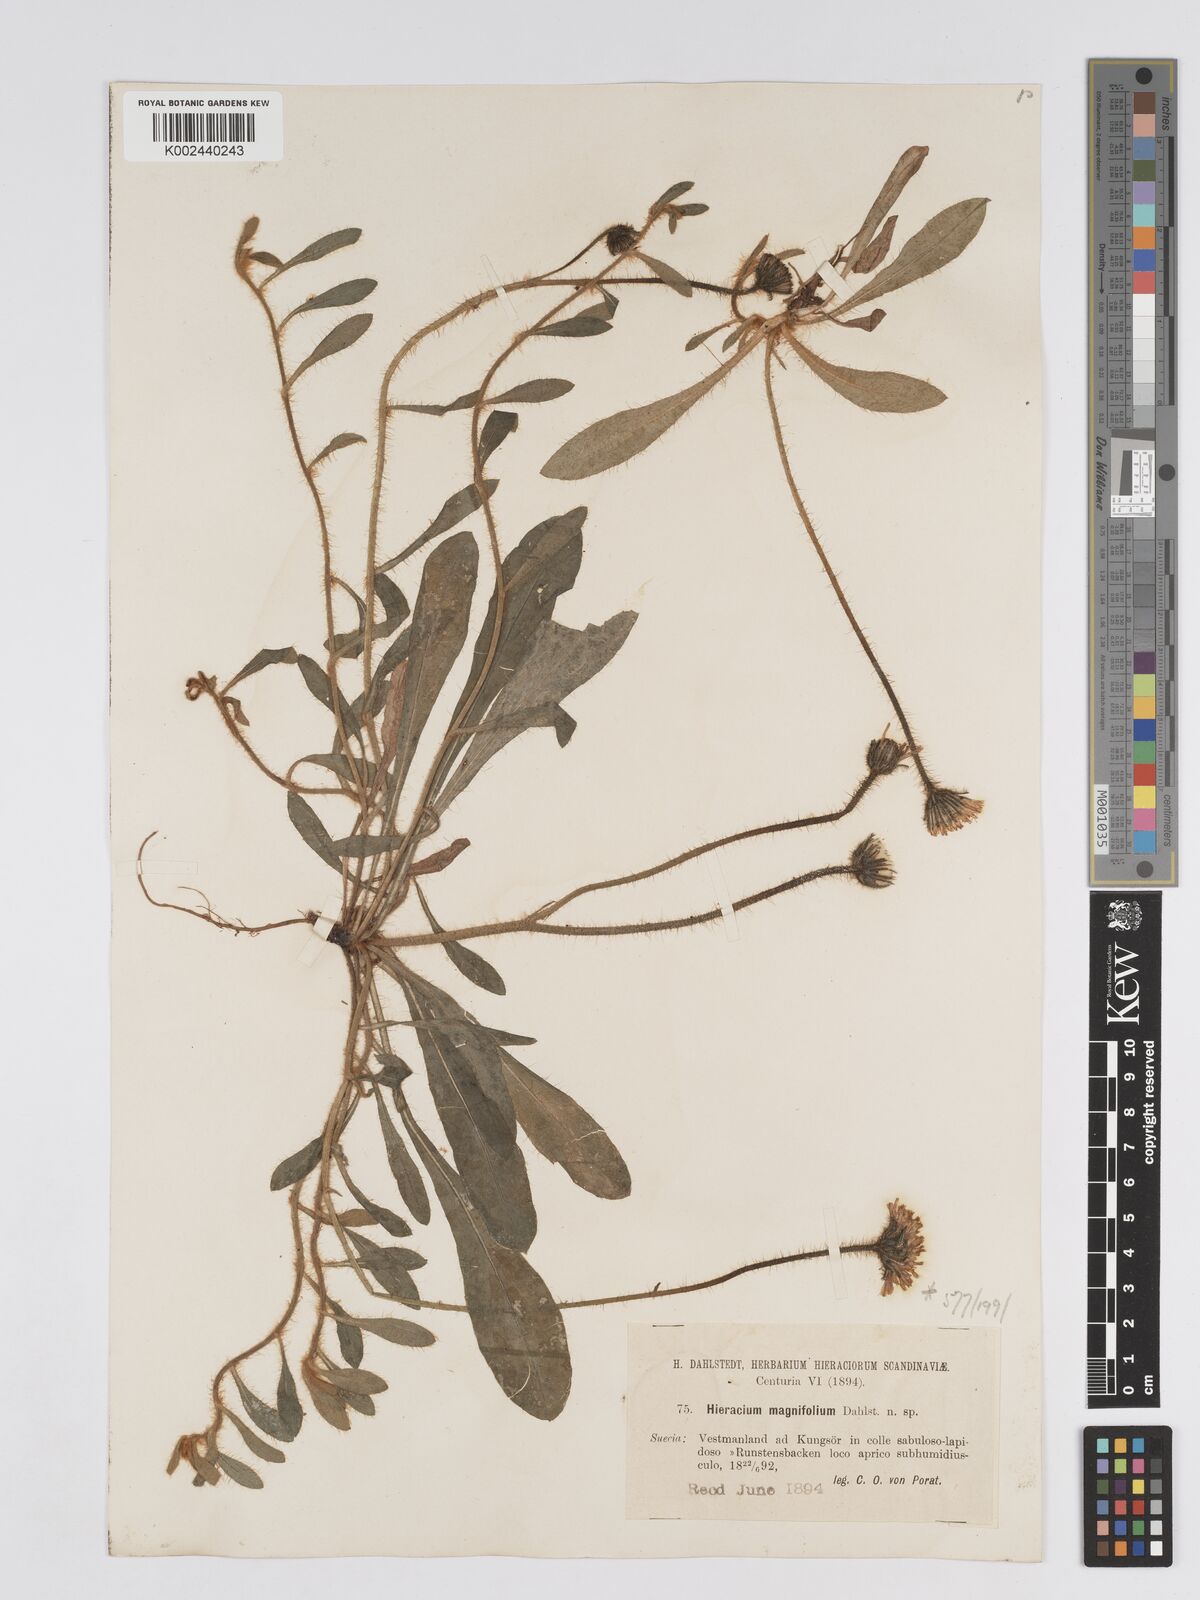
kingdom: Plantae
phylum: Tracheophyta
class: Magnoliopsida
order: Asterales
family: Asteraceae
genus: Pilosella
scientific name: Pilosella officinarum
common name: Mouse-ear hawkweed
